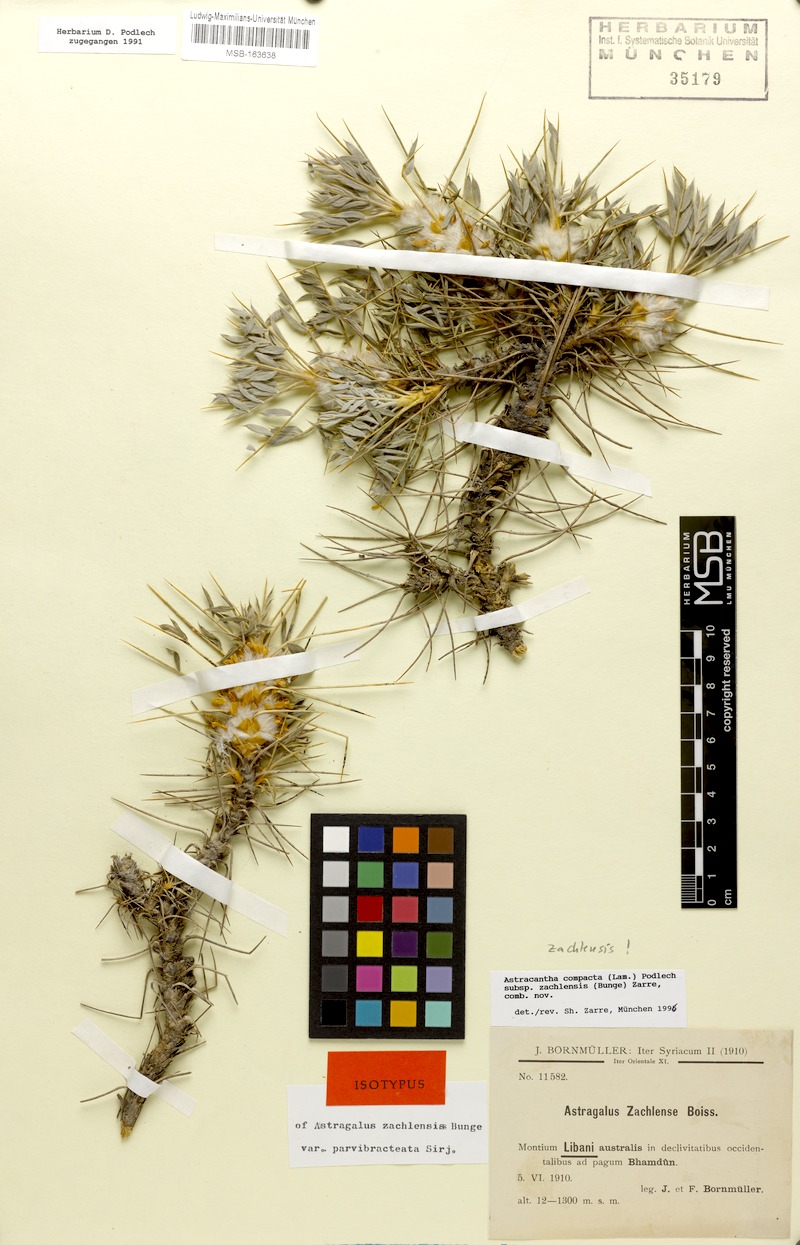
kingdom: Plantae
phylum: Tracheophyta
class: Magnoliopsida
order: Fabales
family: Fabaceae
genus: Astragalus
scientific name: Astragalus zachlensis
